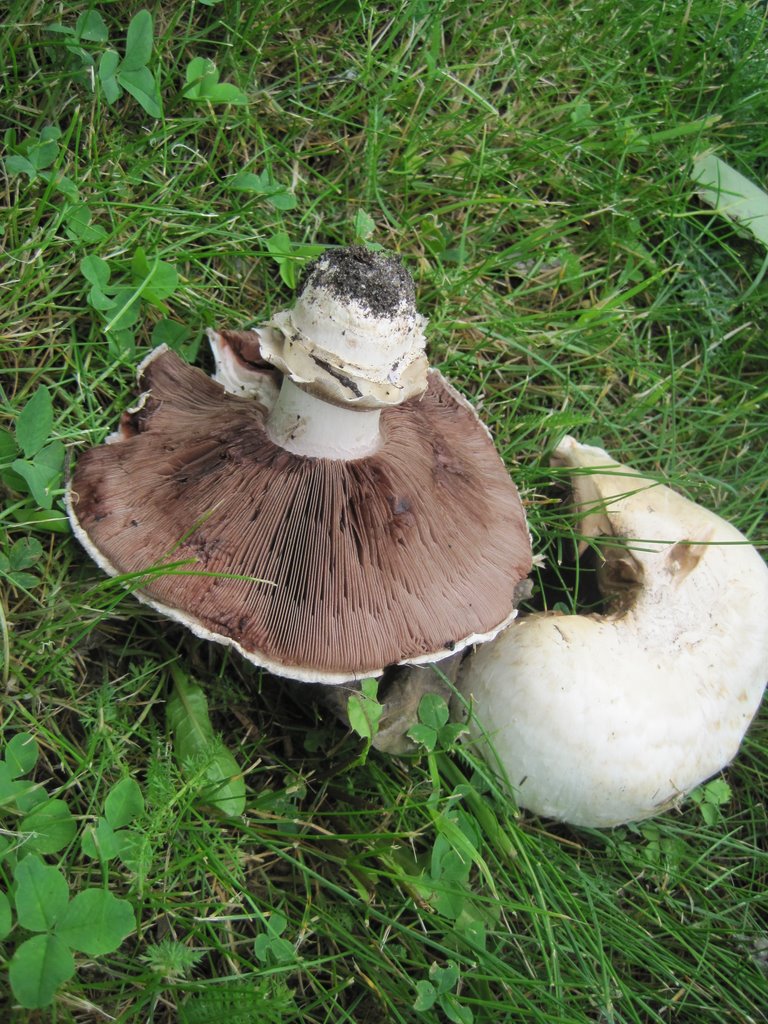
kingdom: Fungi
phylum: Basidiomycota
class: Agaricomycetes
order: Agaricales
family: Agaricaceae
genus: Agaricus
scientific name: Agaricus bitorquis
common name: vej-champignon
